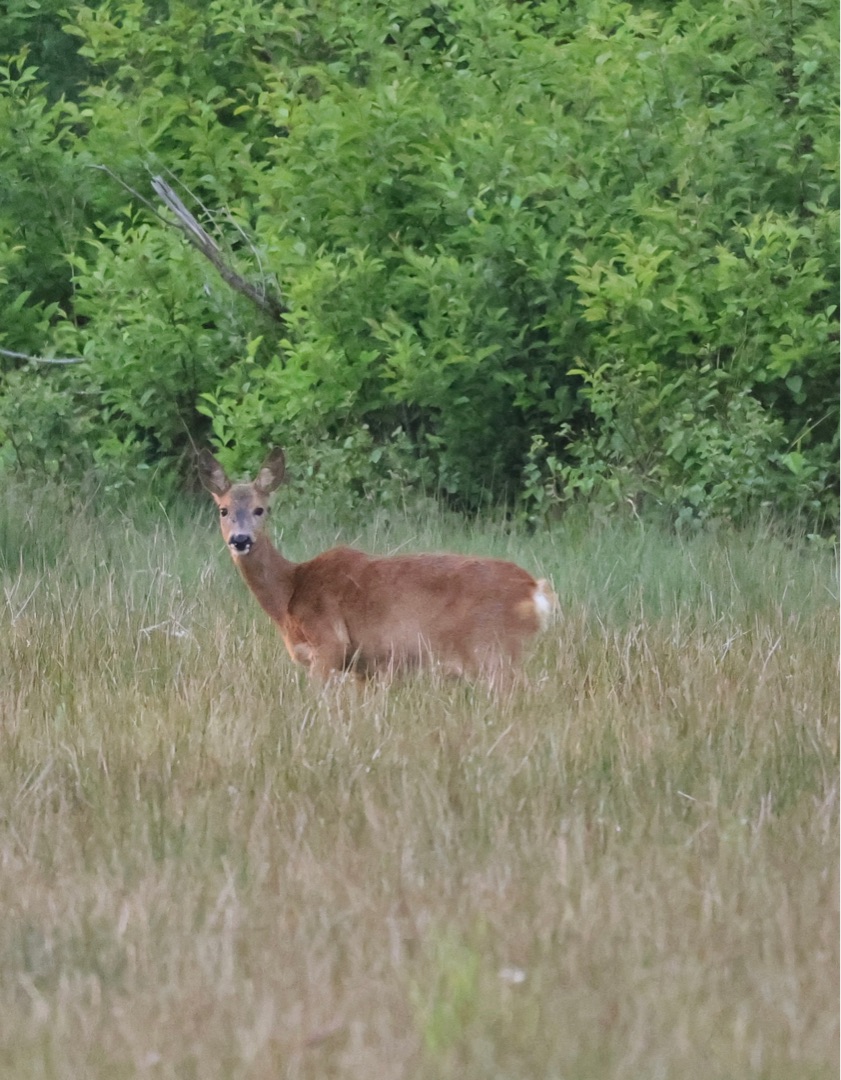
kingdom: Animalia
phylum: Chordata
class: Mammalia
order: Artiodactyla
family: Cervidae
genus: Capreolus
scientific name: Capreolus capreolus
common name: Rådyr
